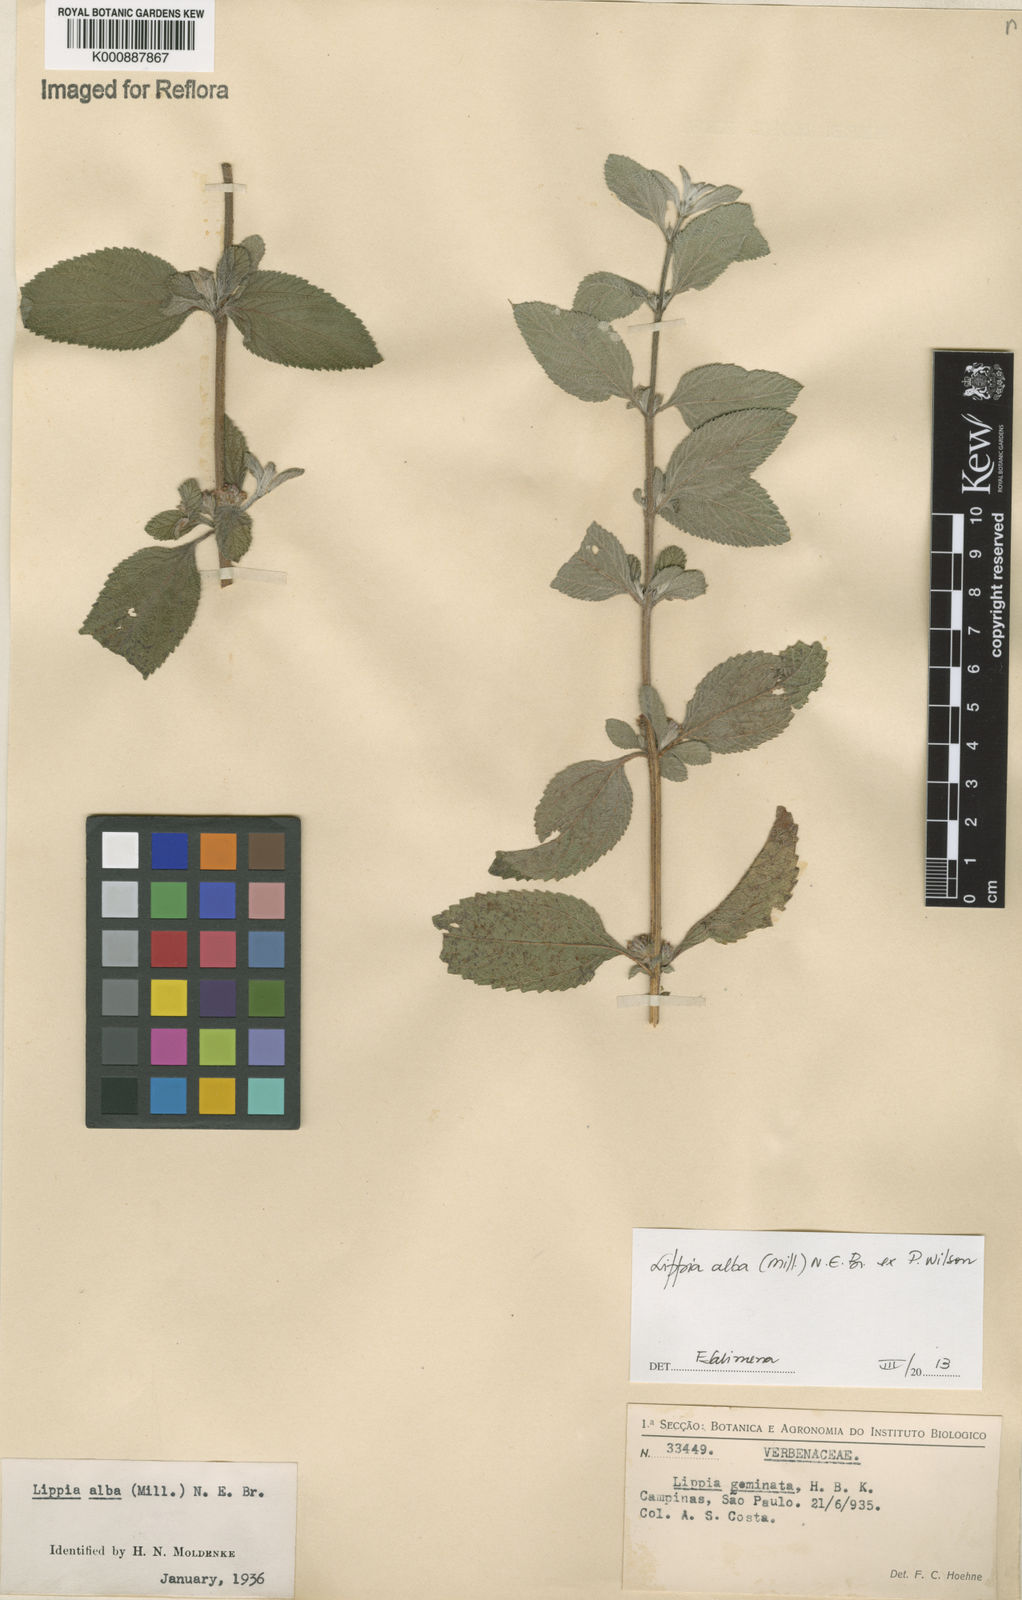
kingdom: Plantae
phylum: Tracheophyta
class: Magnoliopsida
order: Lamiales
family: Verbenaceae
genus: Lippia
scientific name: Lippia
